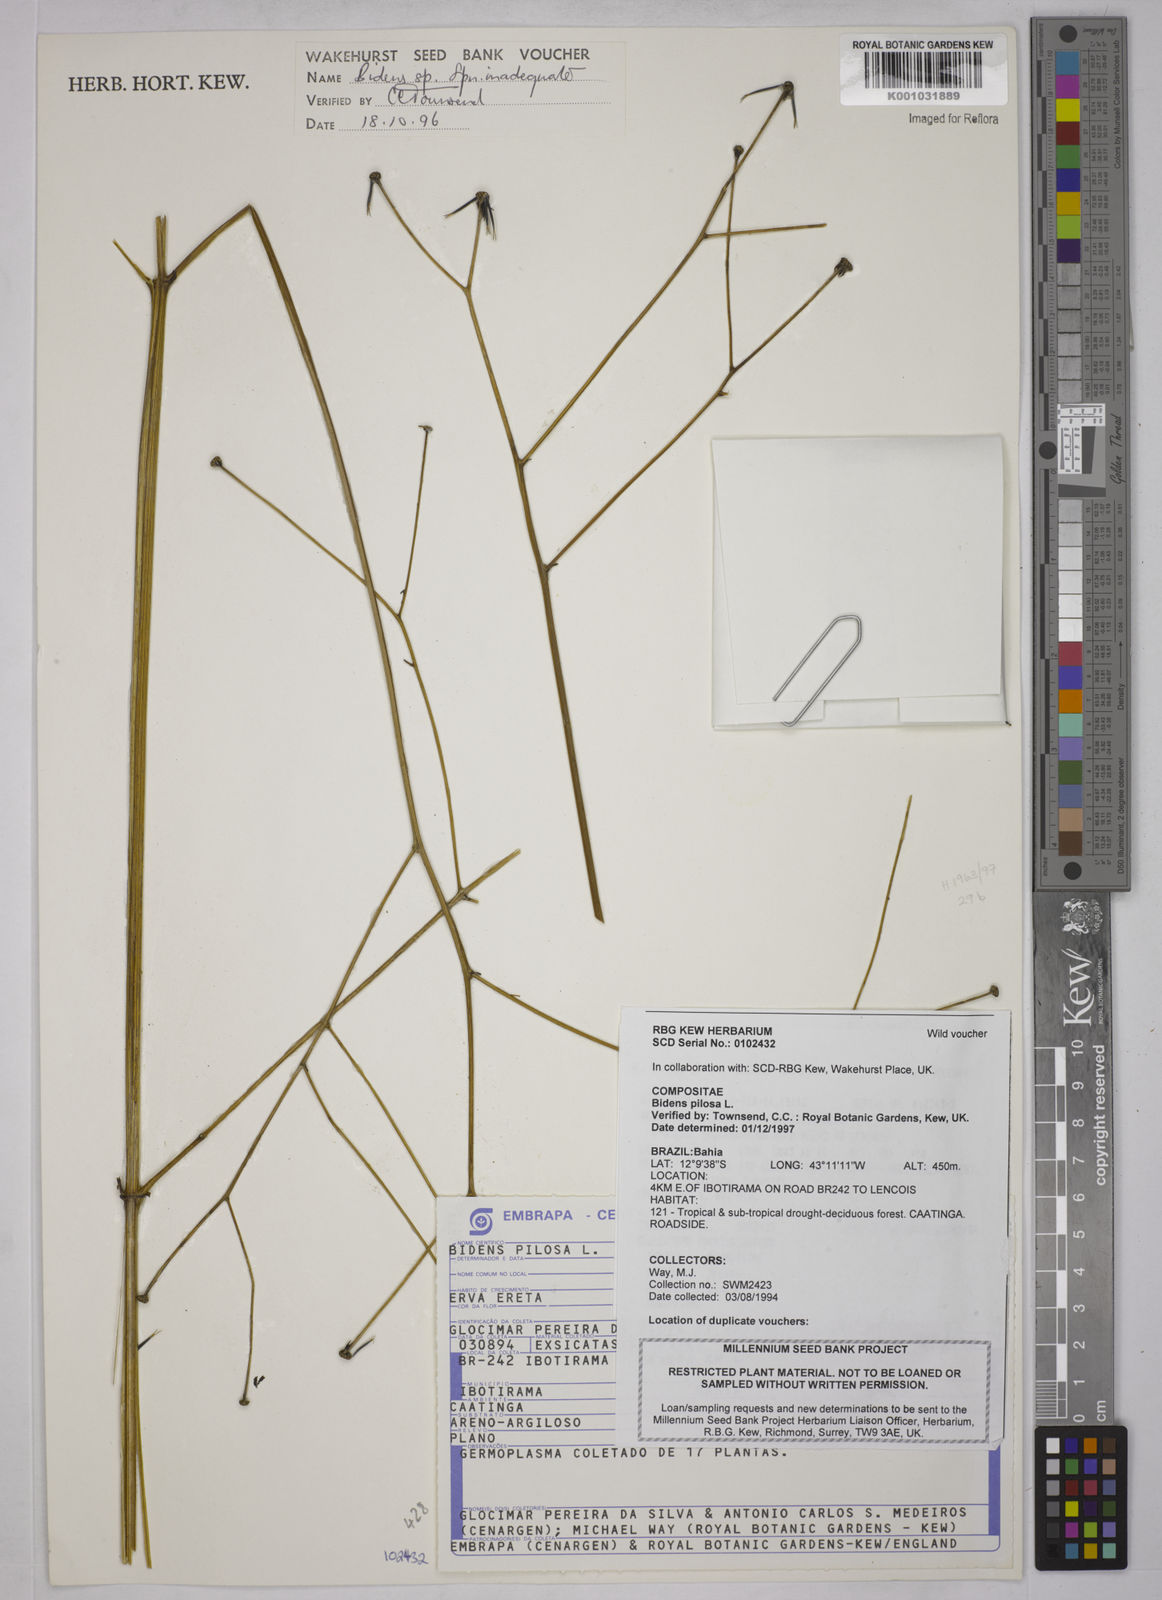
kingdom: Plantae
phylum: Tracheophyta
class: Magnoliopsida
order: Asterales
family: Asteraceae
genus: Bidens
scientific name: Bidens pilosa
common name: Black-jack
